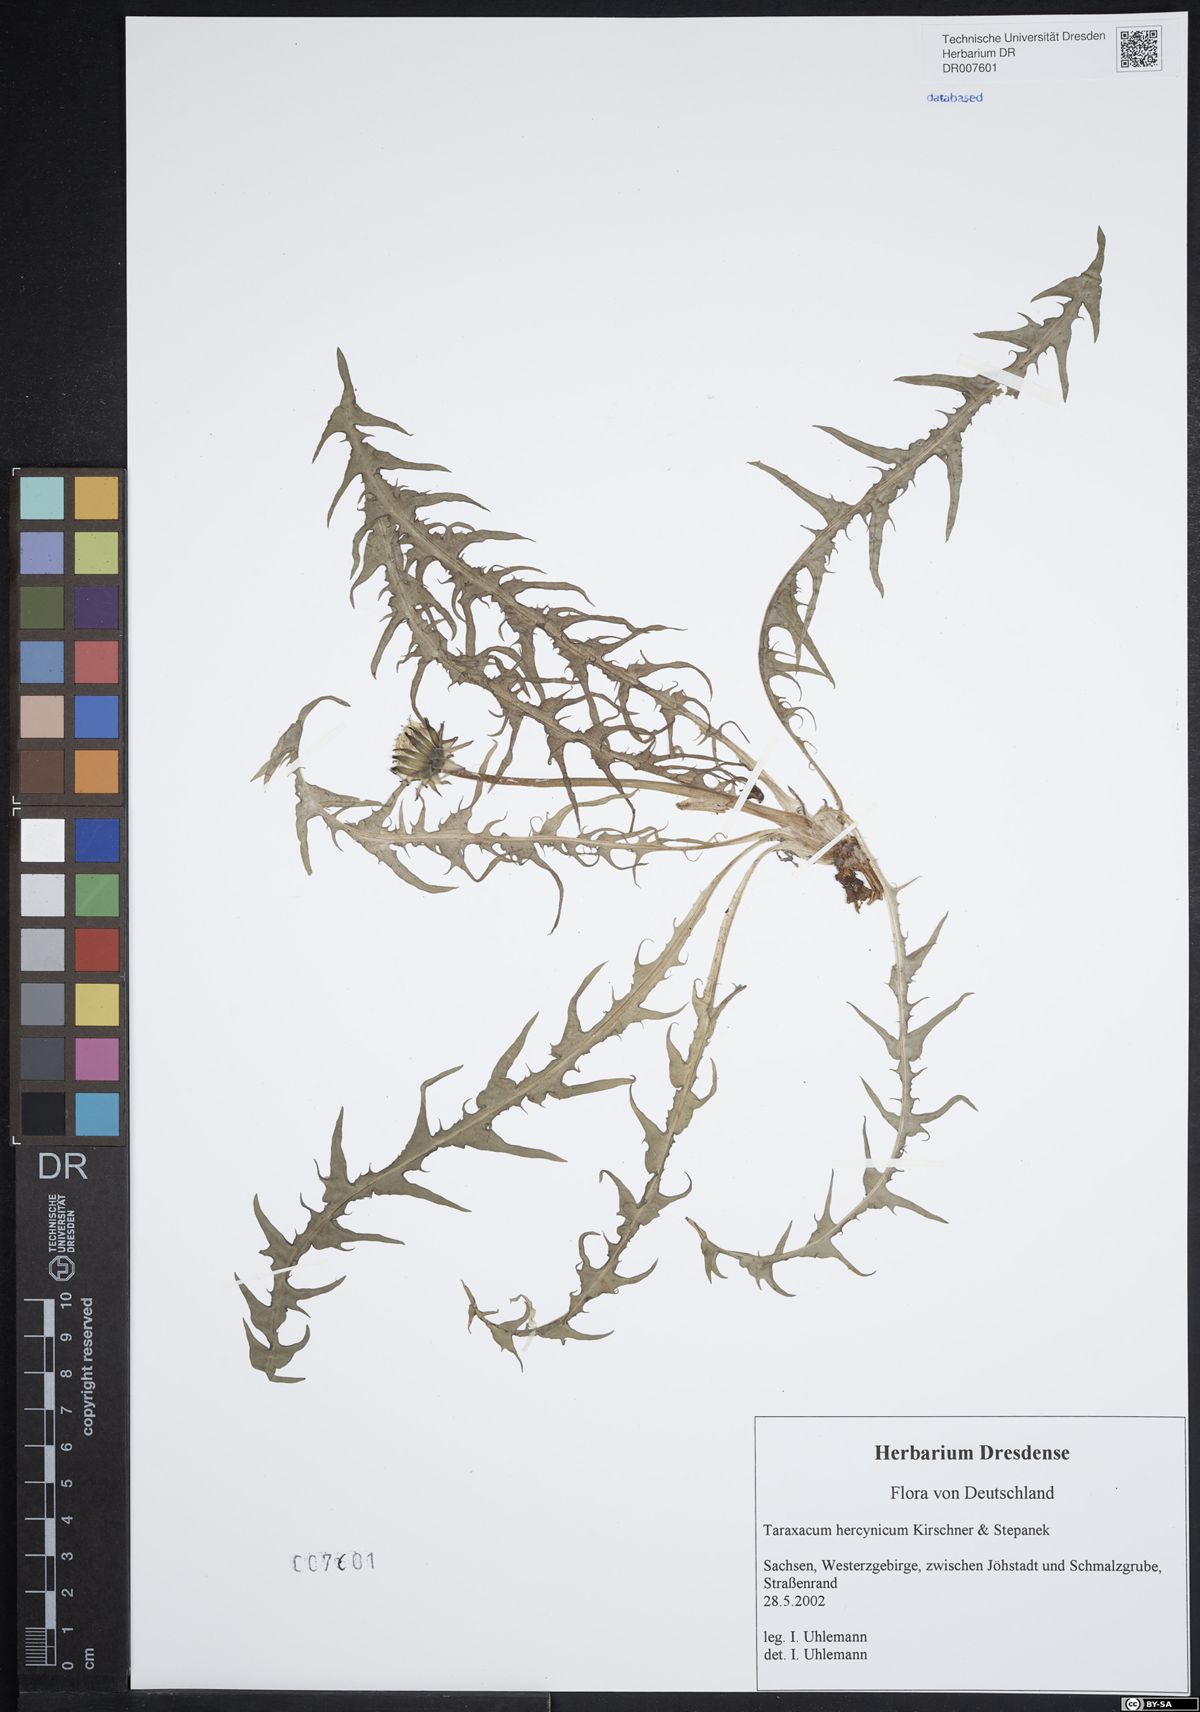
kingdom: Plantae
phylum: Tracheophyta
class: Magnoliopsida
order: Asterales
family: Asteraceae
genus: Taraxacum
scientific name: Taraxacum hercynicum
